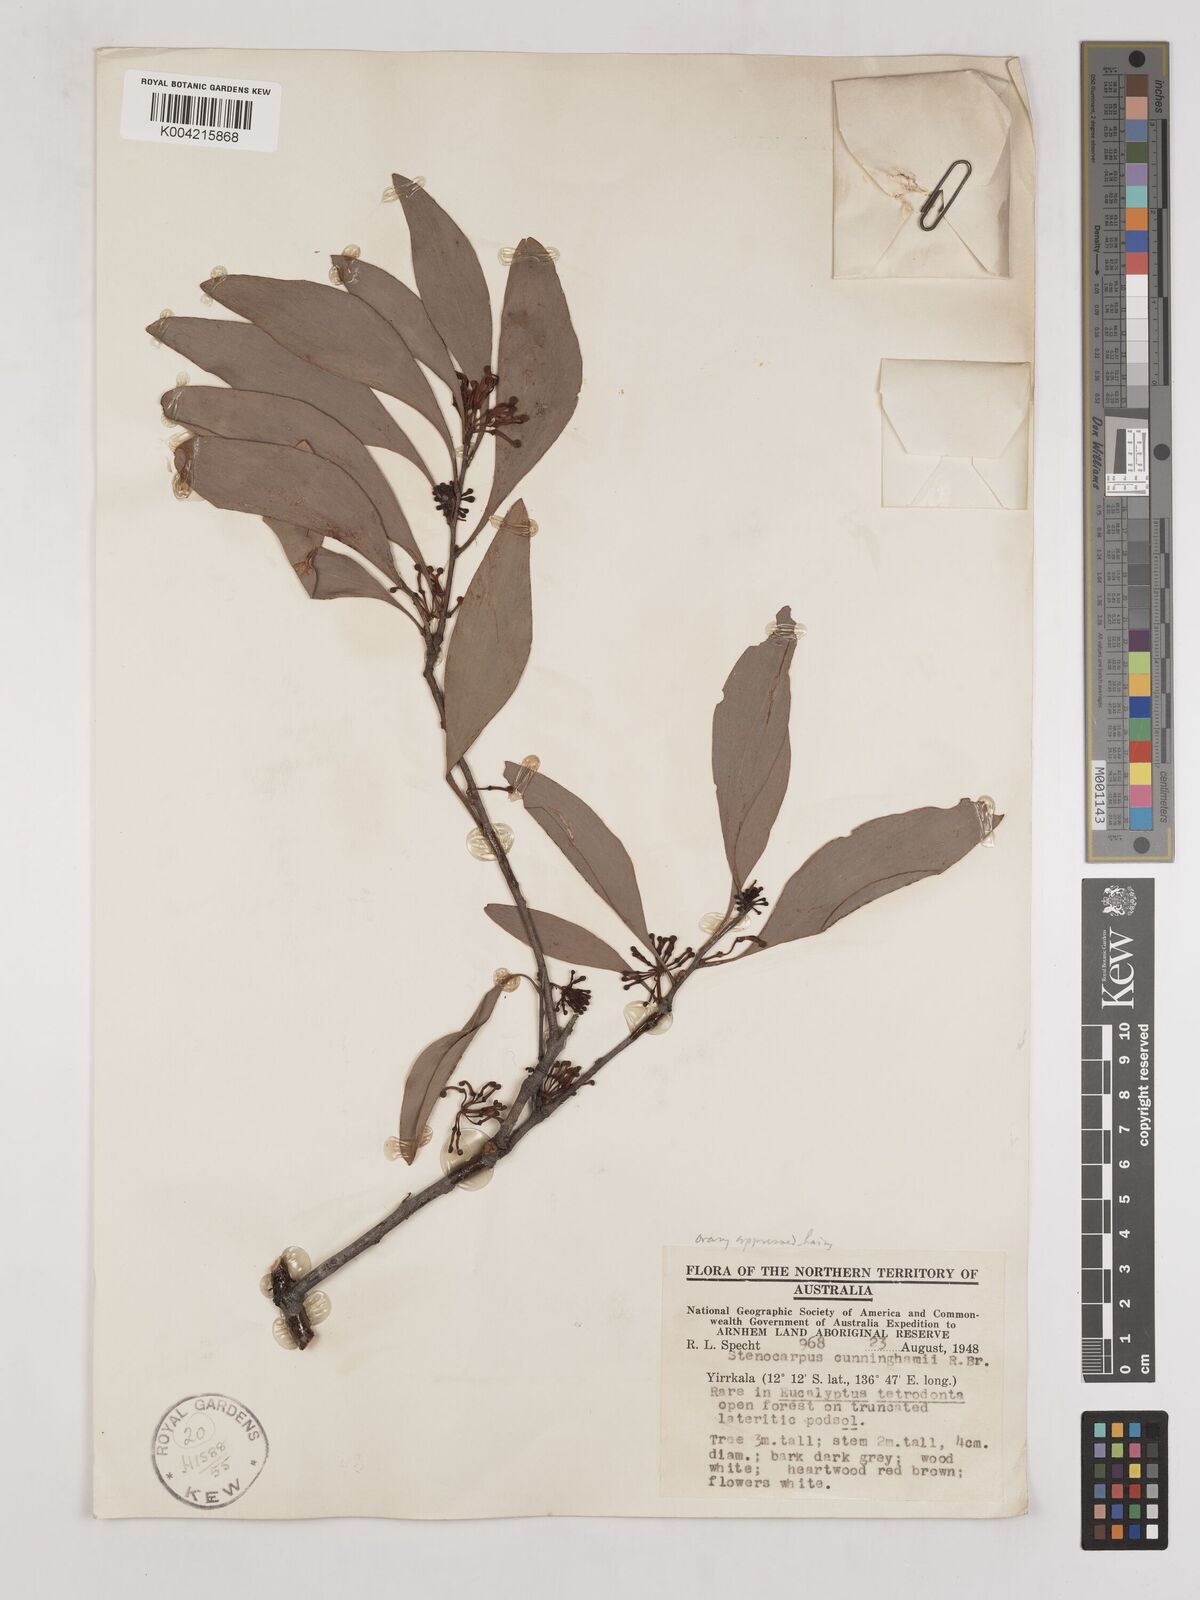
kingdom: Plantae
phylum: Tracheophyta
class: Magnoliopsida
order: Proteales
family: Proteaceae
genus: Stenocarpus
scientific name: Stenocarpus cunninghamii
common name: Little wheelbush
